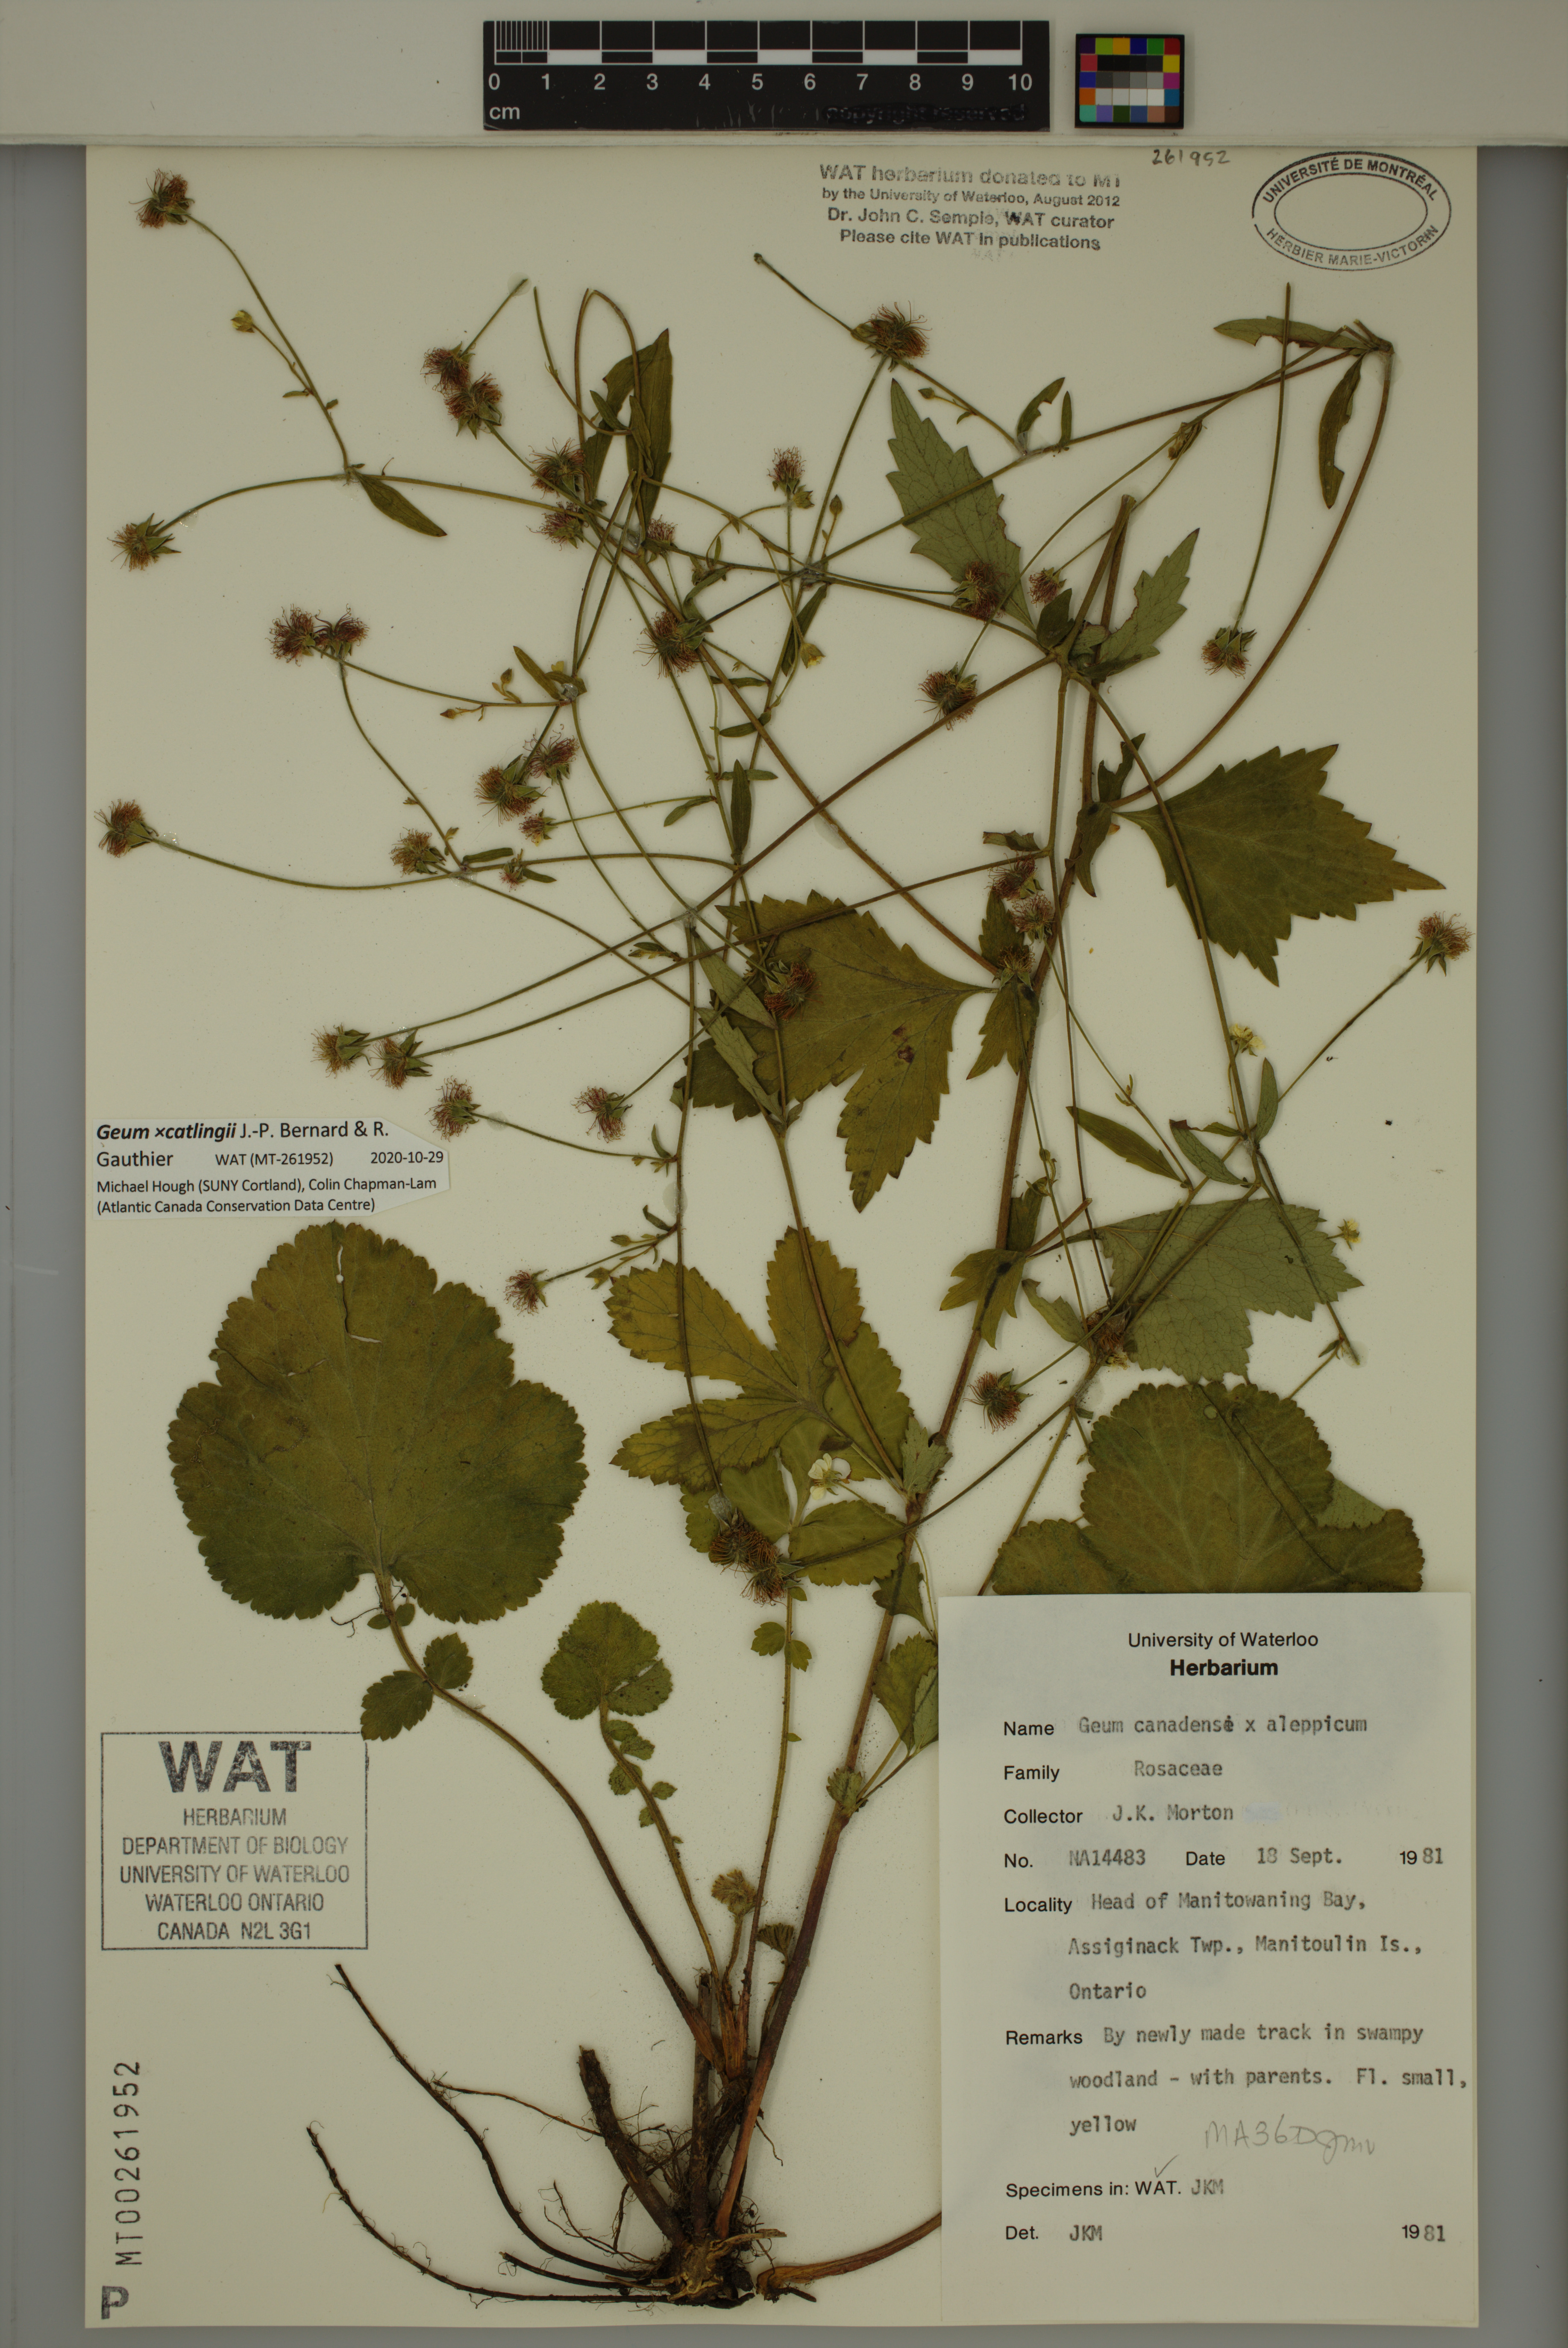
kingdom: Plantae
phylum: Tracheophyta
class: Magnoliopsida
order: Rosales
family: Rosaceae
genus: Geum
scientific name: Geum catlingii
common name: Catling's avens
